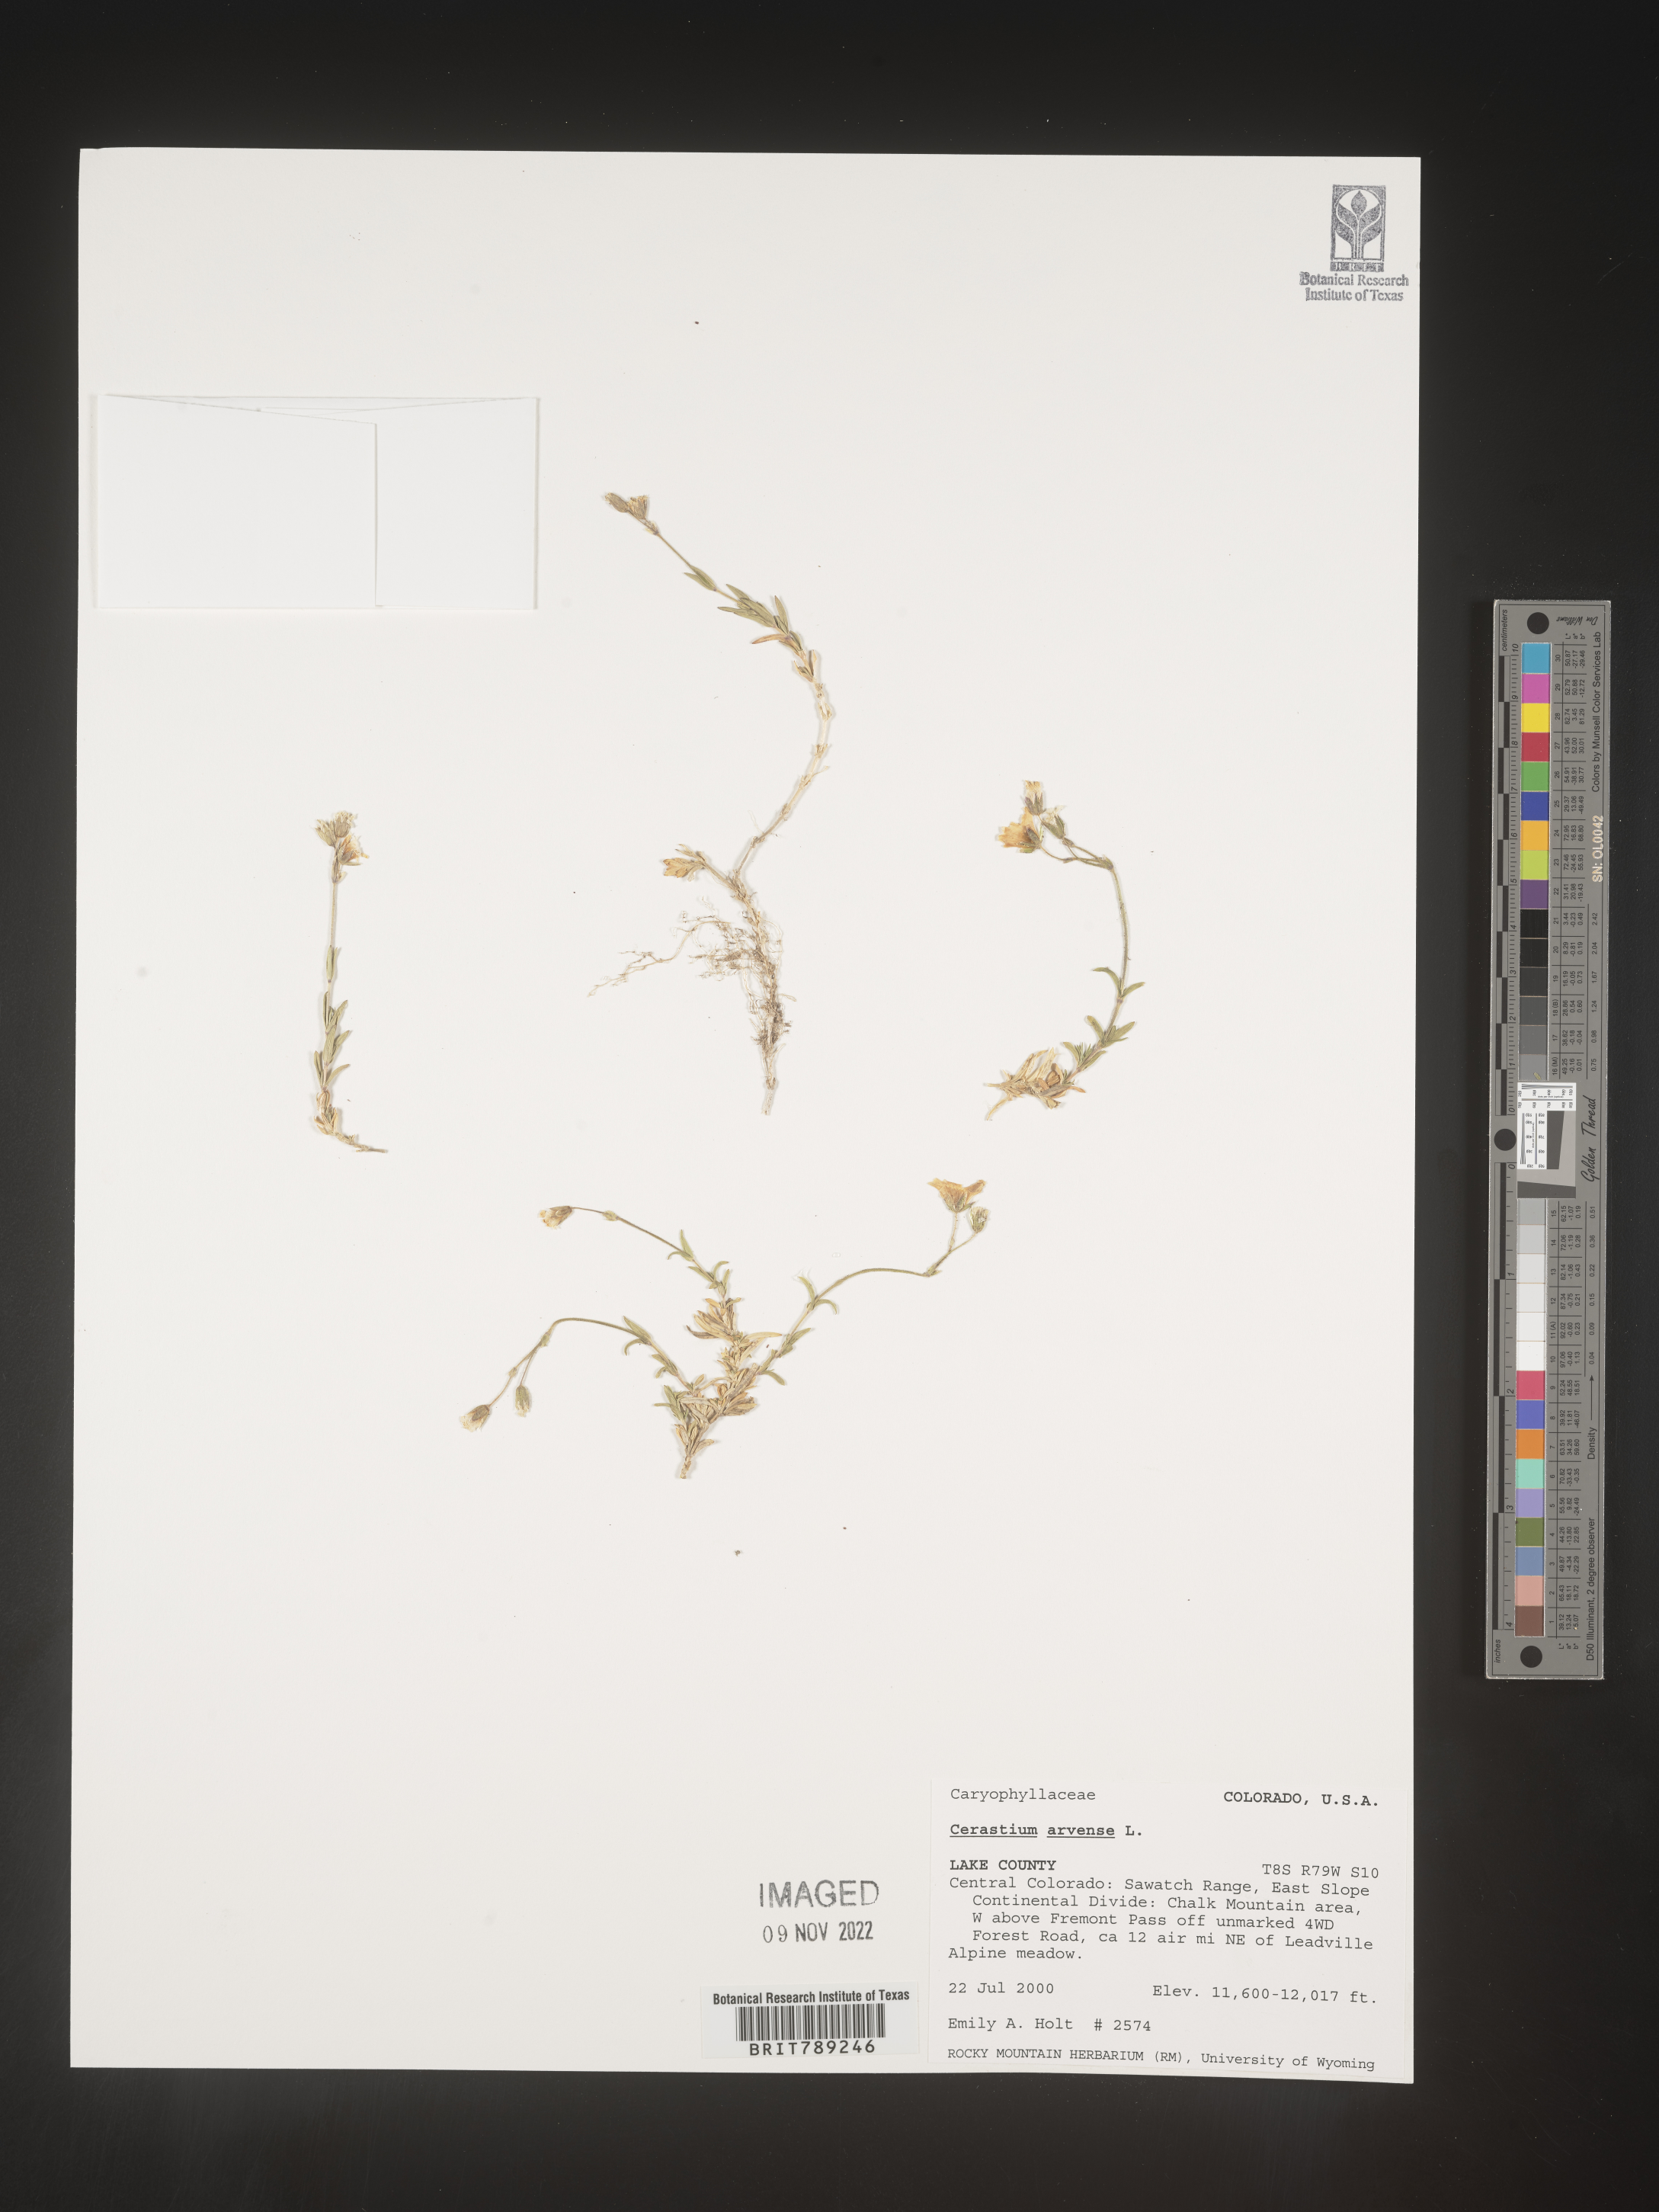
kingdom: Plantae
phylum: Tracheophyta
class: Magnoliopsida
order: Caryophyllales
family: Caryophyllaceae
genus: Cerastium
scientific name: Cerastium arvense
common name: Field mouse-ear
